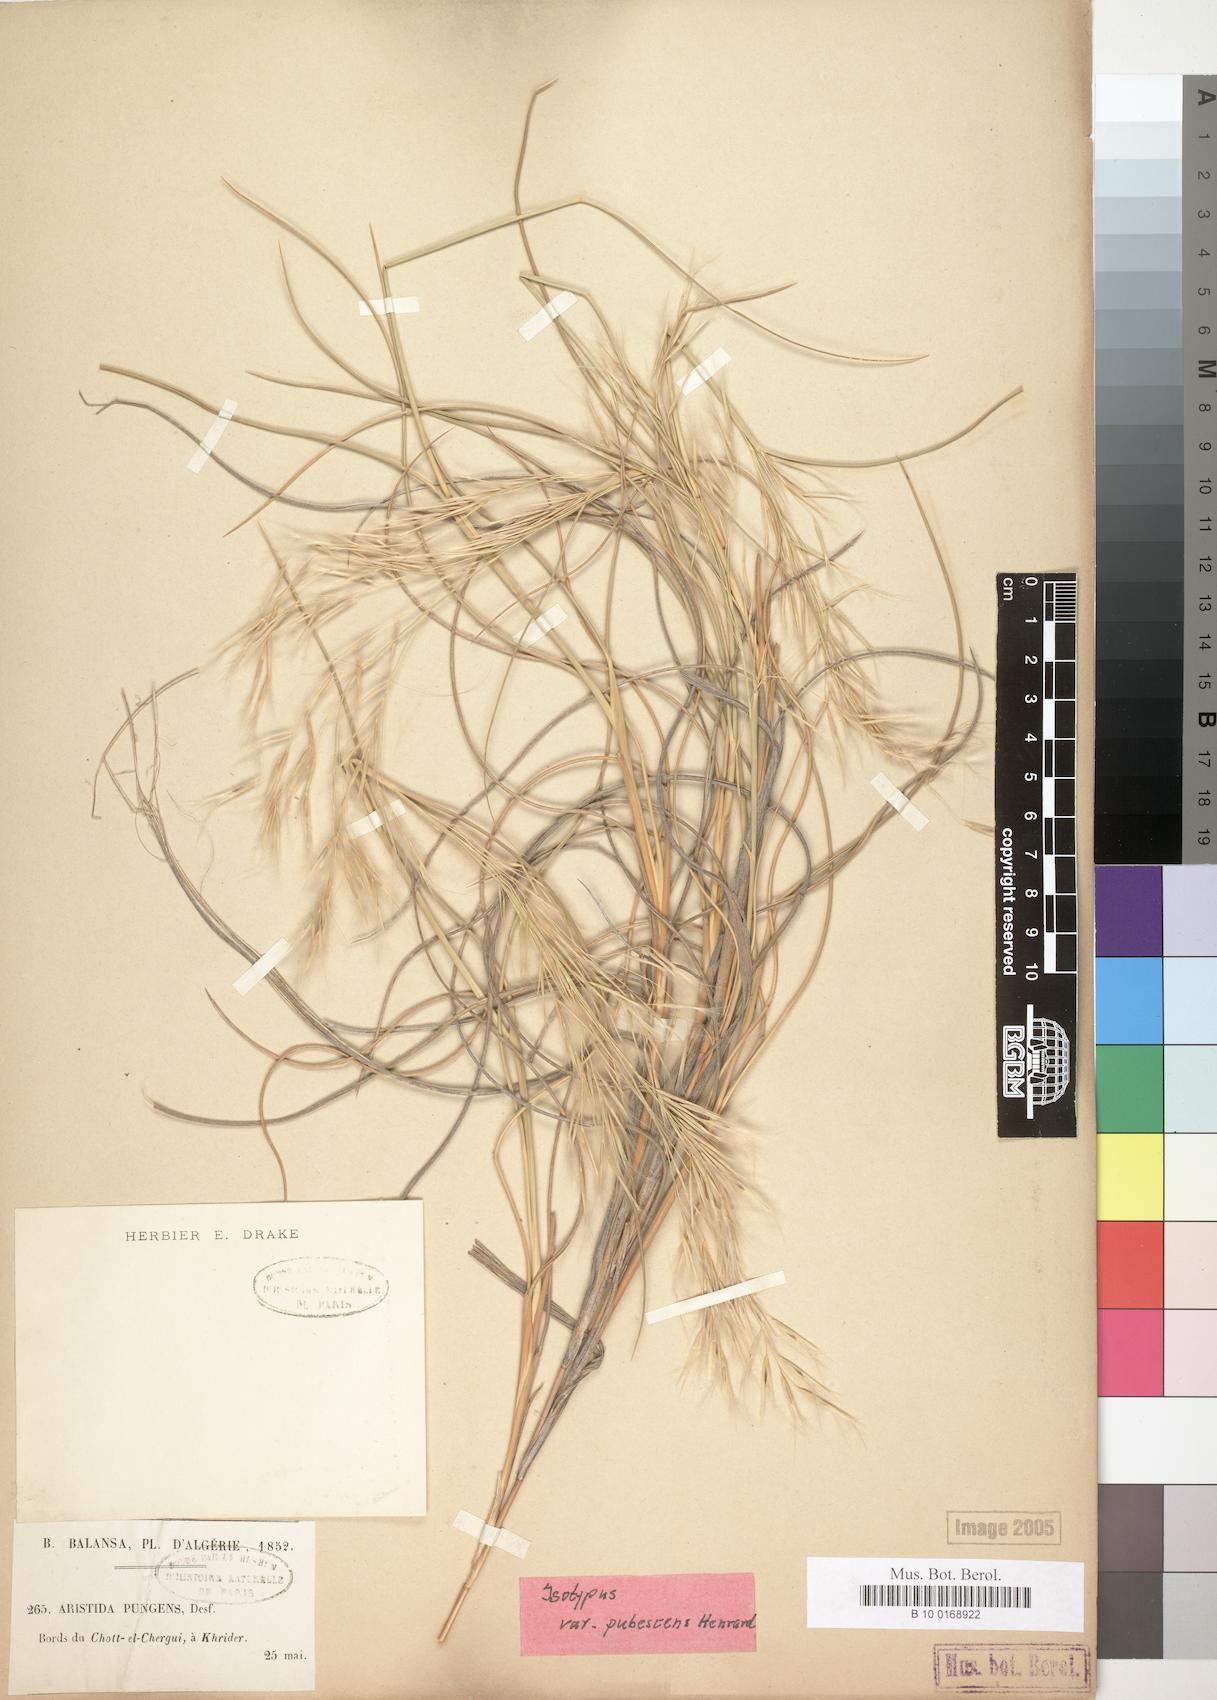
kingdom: Plantae
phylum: Tracheophyta
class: Liliopsida
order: Poales
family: Poaceae
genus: Stipagrostis
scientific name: Stipagrostis pungens
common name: Three-awn grass
